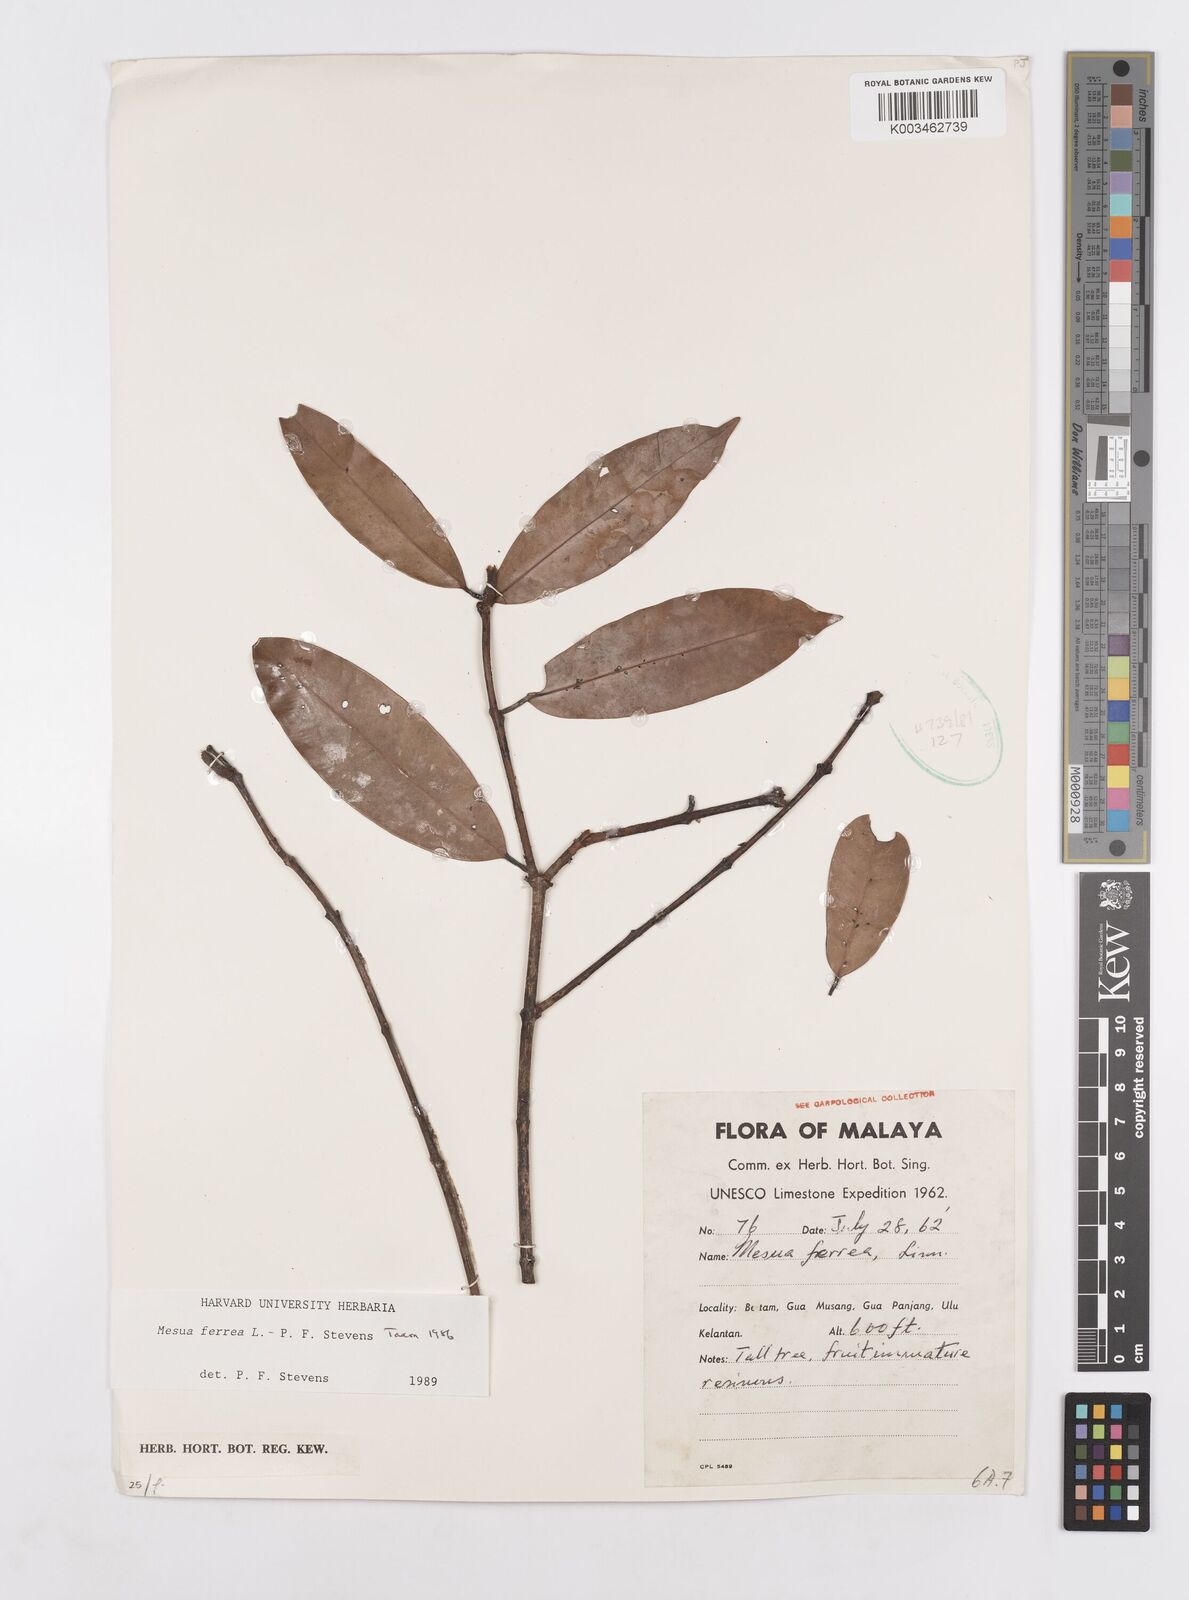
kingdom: Plantae
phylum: Tracheophyta
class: Magnoliopsida
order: Malpighiales
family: Calophyllaceae
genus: Mesua
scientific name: Mesua ferrea
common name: Mesua
